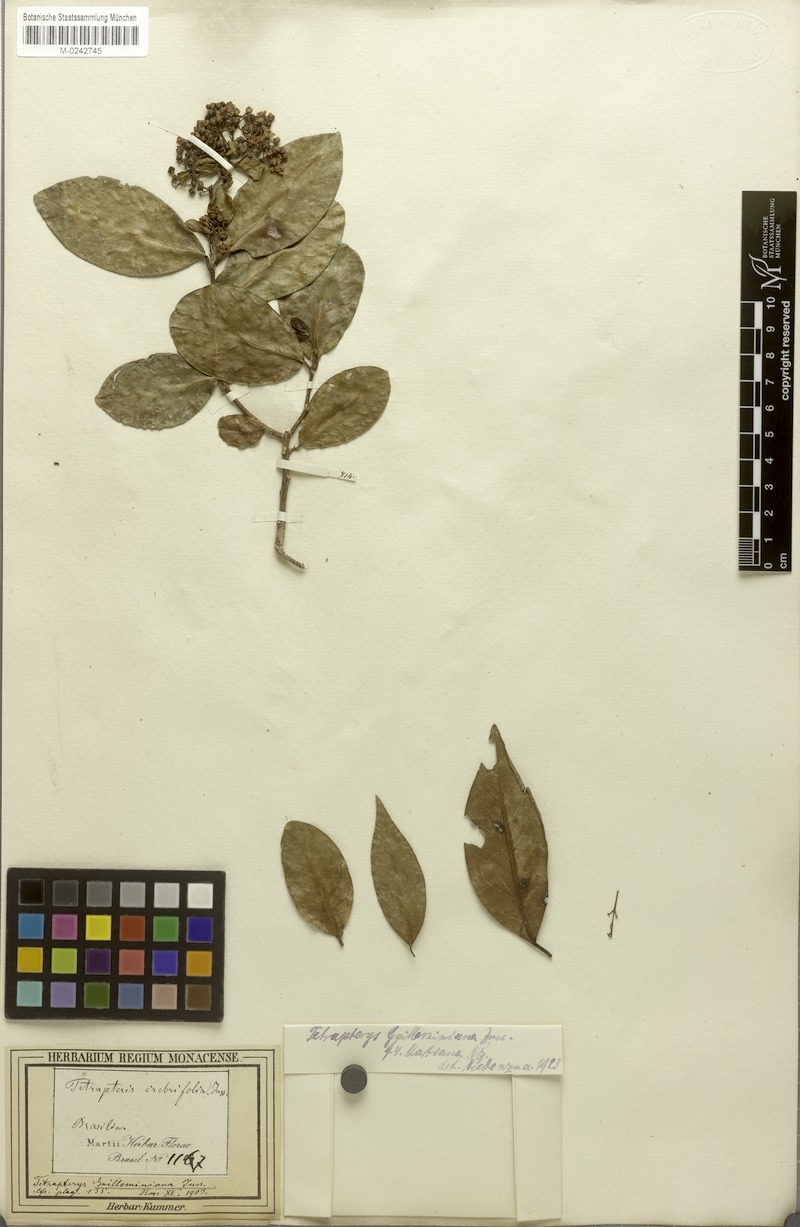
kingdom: Plantae
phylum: Tracheophyta
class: Magnoliopsida
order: Malpighiales
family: Malpighiaceae
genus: Niedenzuella
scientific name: Niedenzuella acutifolia
